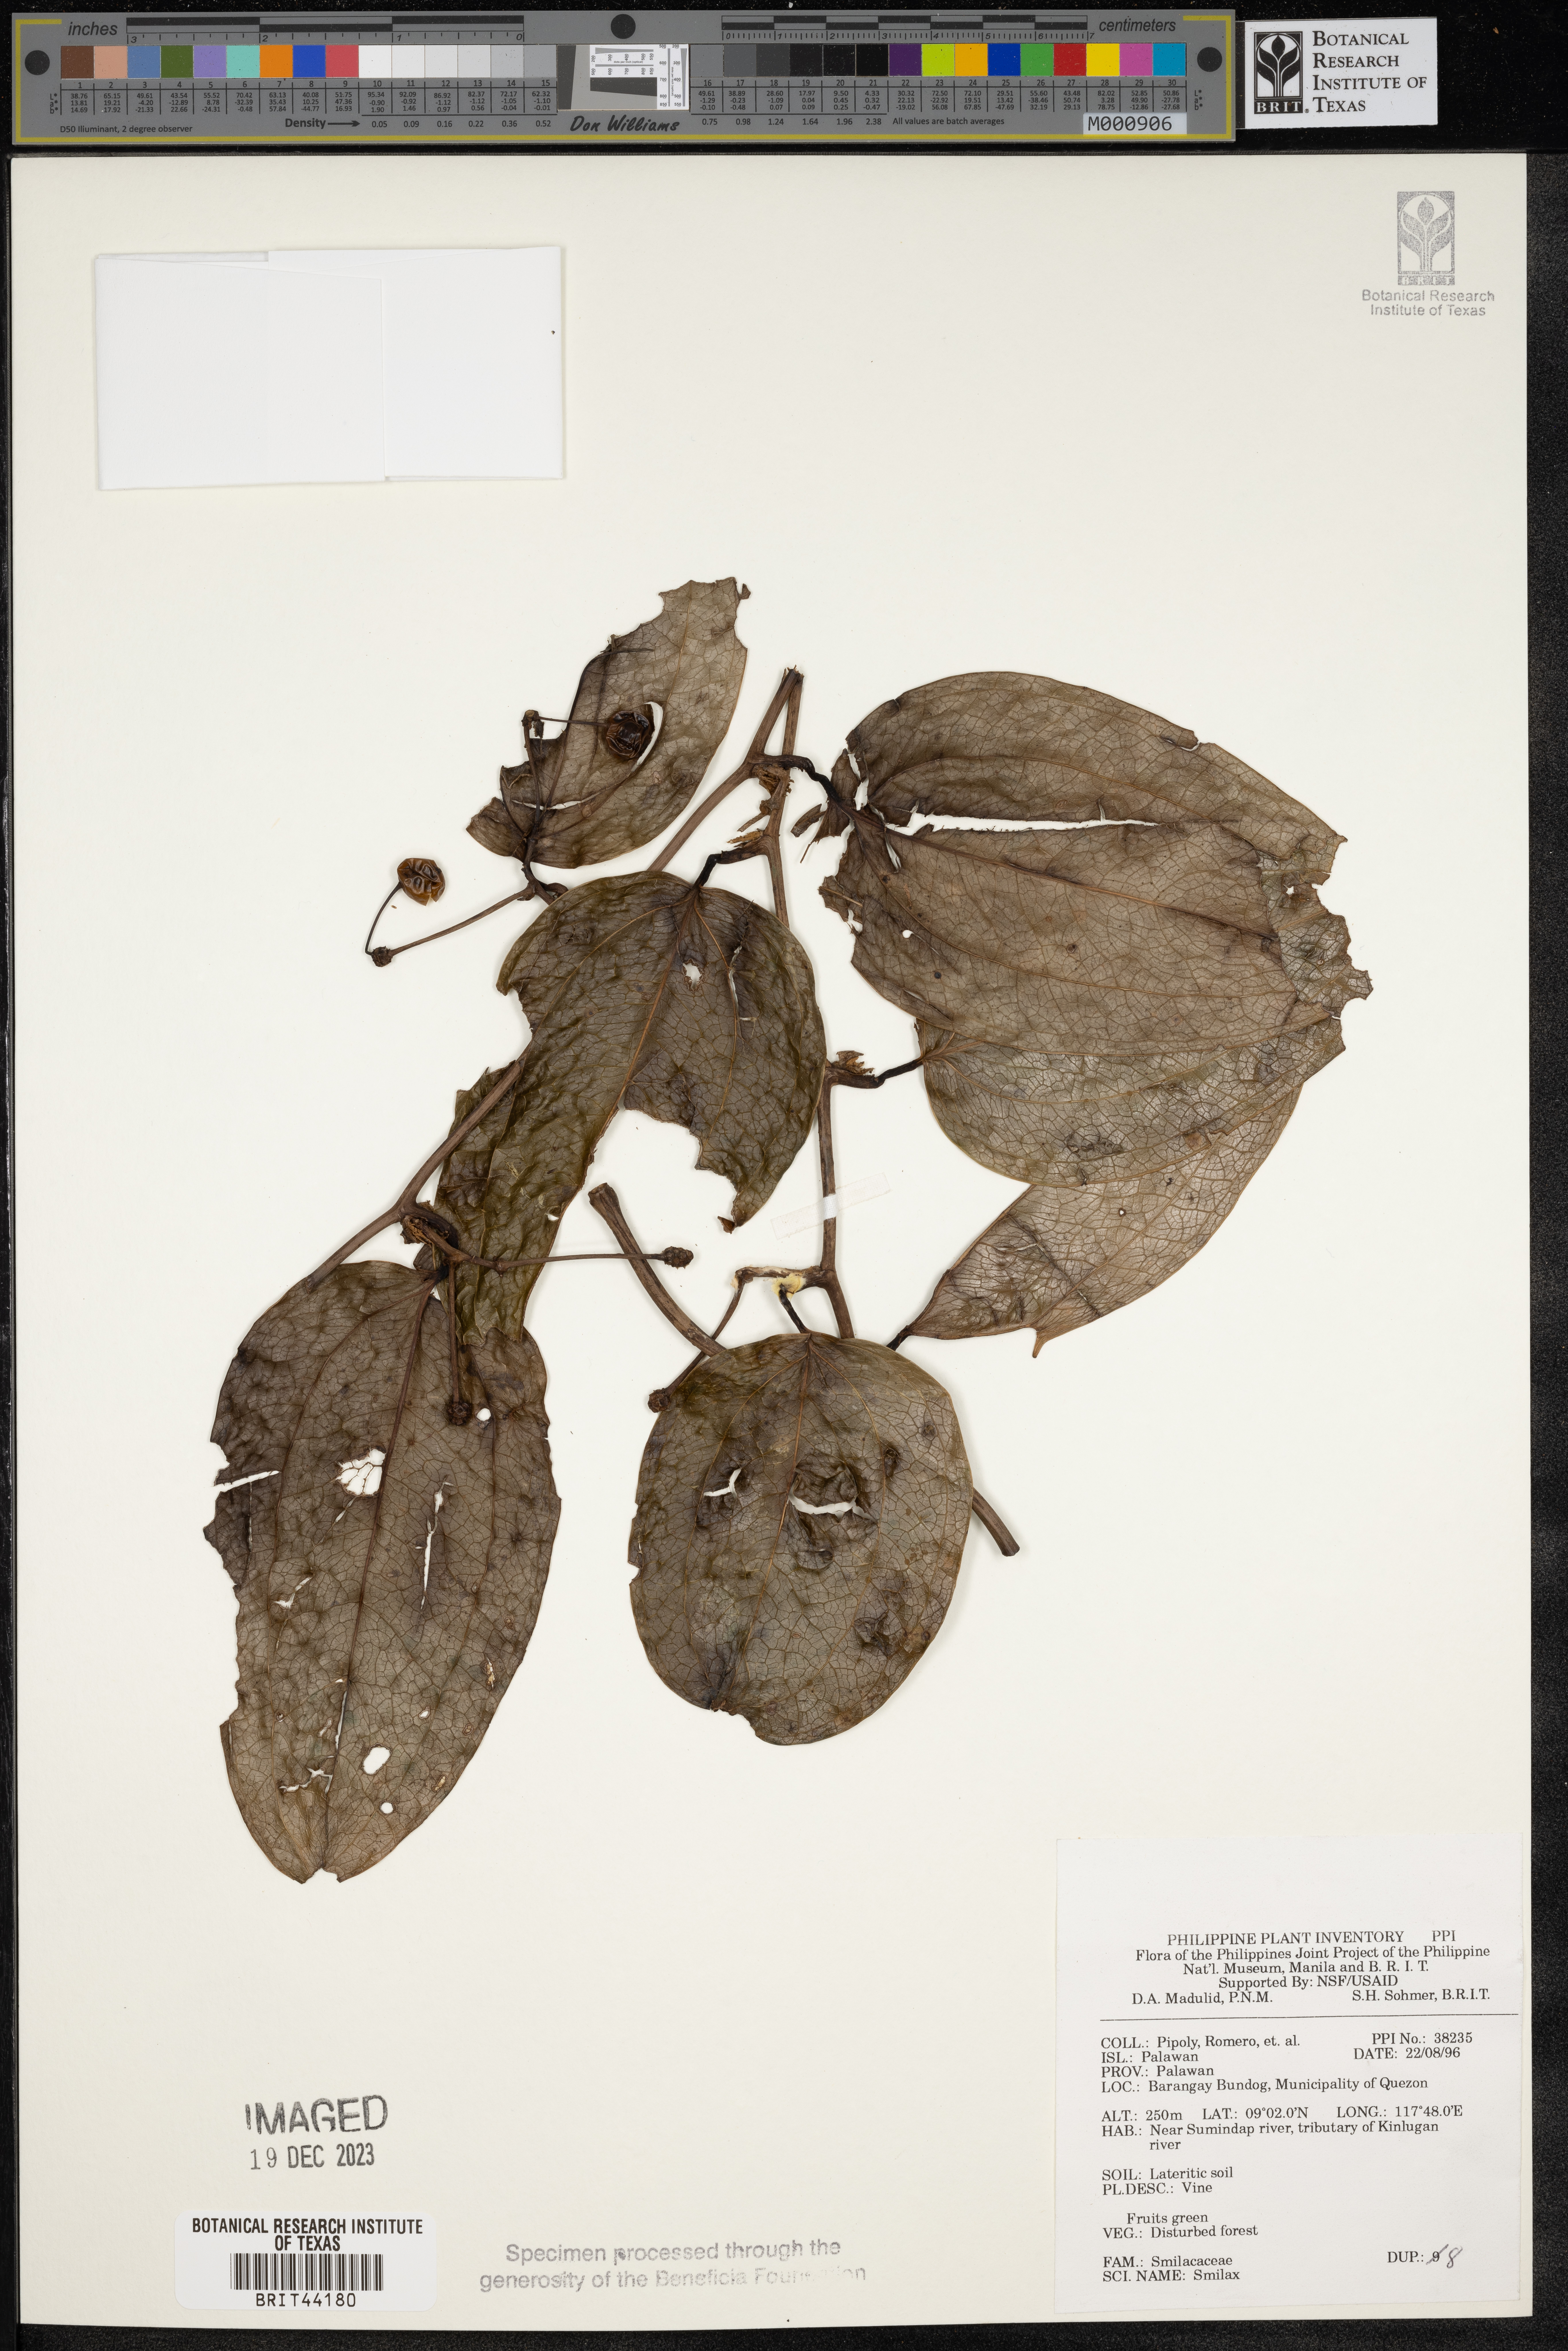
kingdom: Plantae
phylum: Tracheophyta
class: Liliopsida
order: Liliales
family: Smilacaceae
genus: Smilax
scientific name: Smilax
